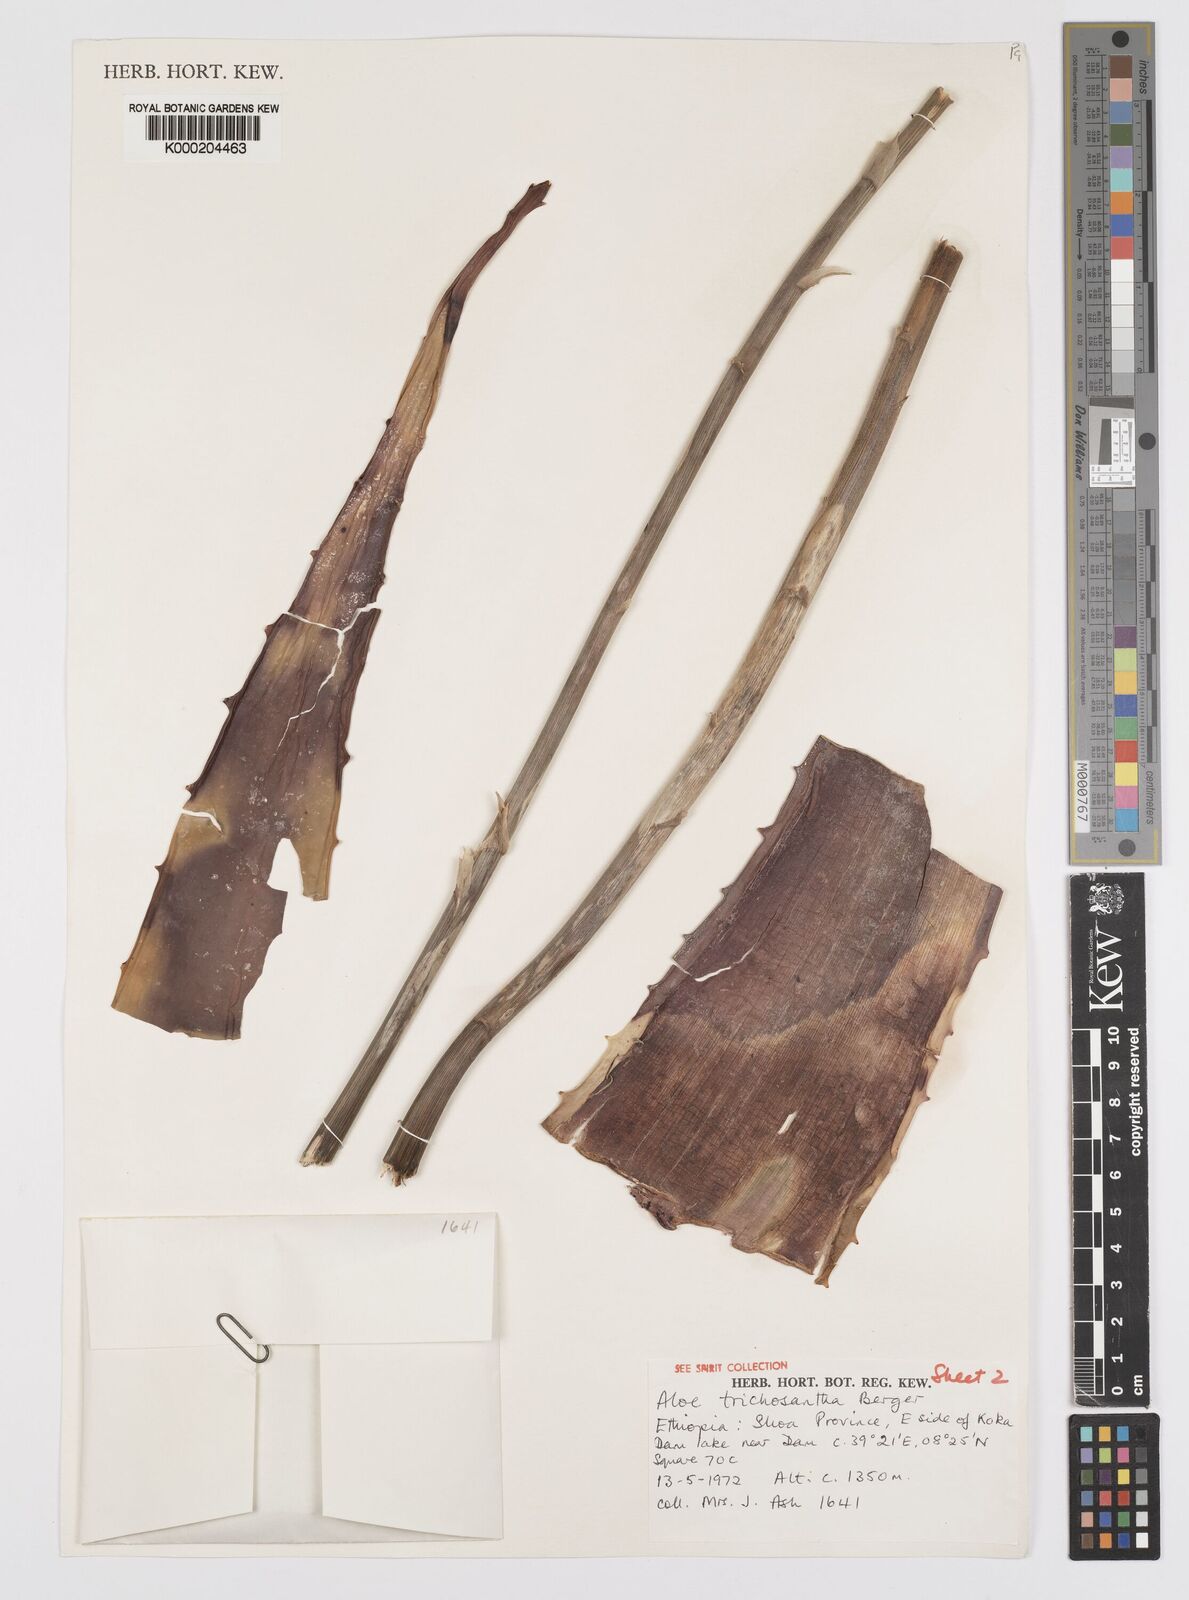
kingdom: Plantae
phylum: Tracheophyta
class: Liliopsida
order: Asparagales
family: Asphodelaceae
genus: Aloe
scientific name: Aloe trichosantha
